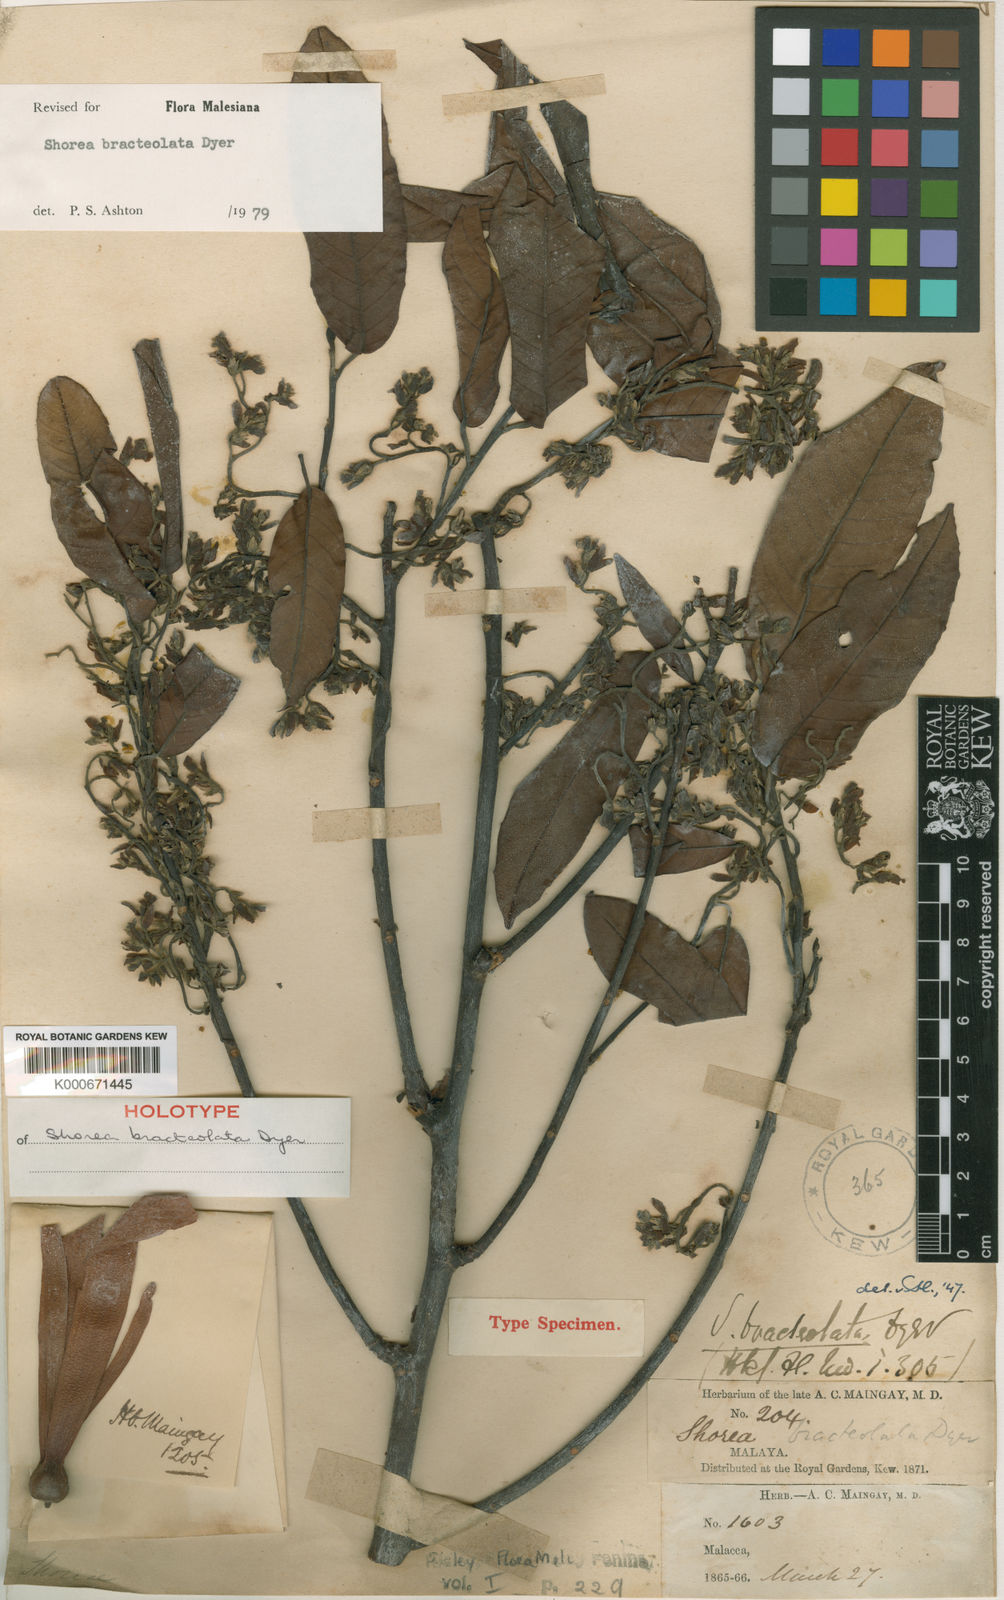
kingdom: Plantae
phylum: Tracheophyta
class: Magnoliopsida
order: Malvales
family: Dipterocarpaceae
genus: Anthoshorea
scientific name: Anthoshorea bracteolata
